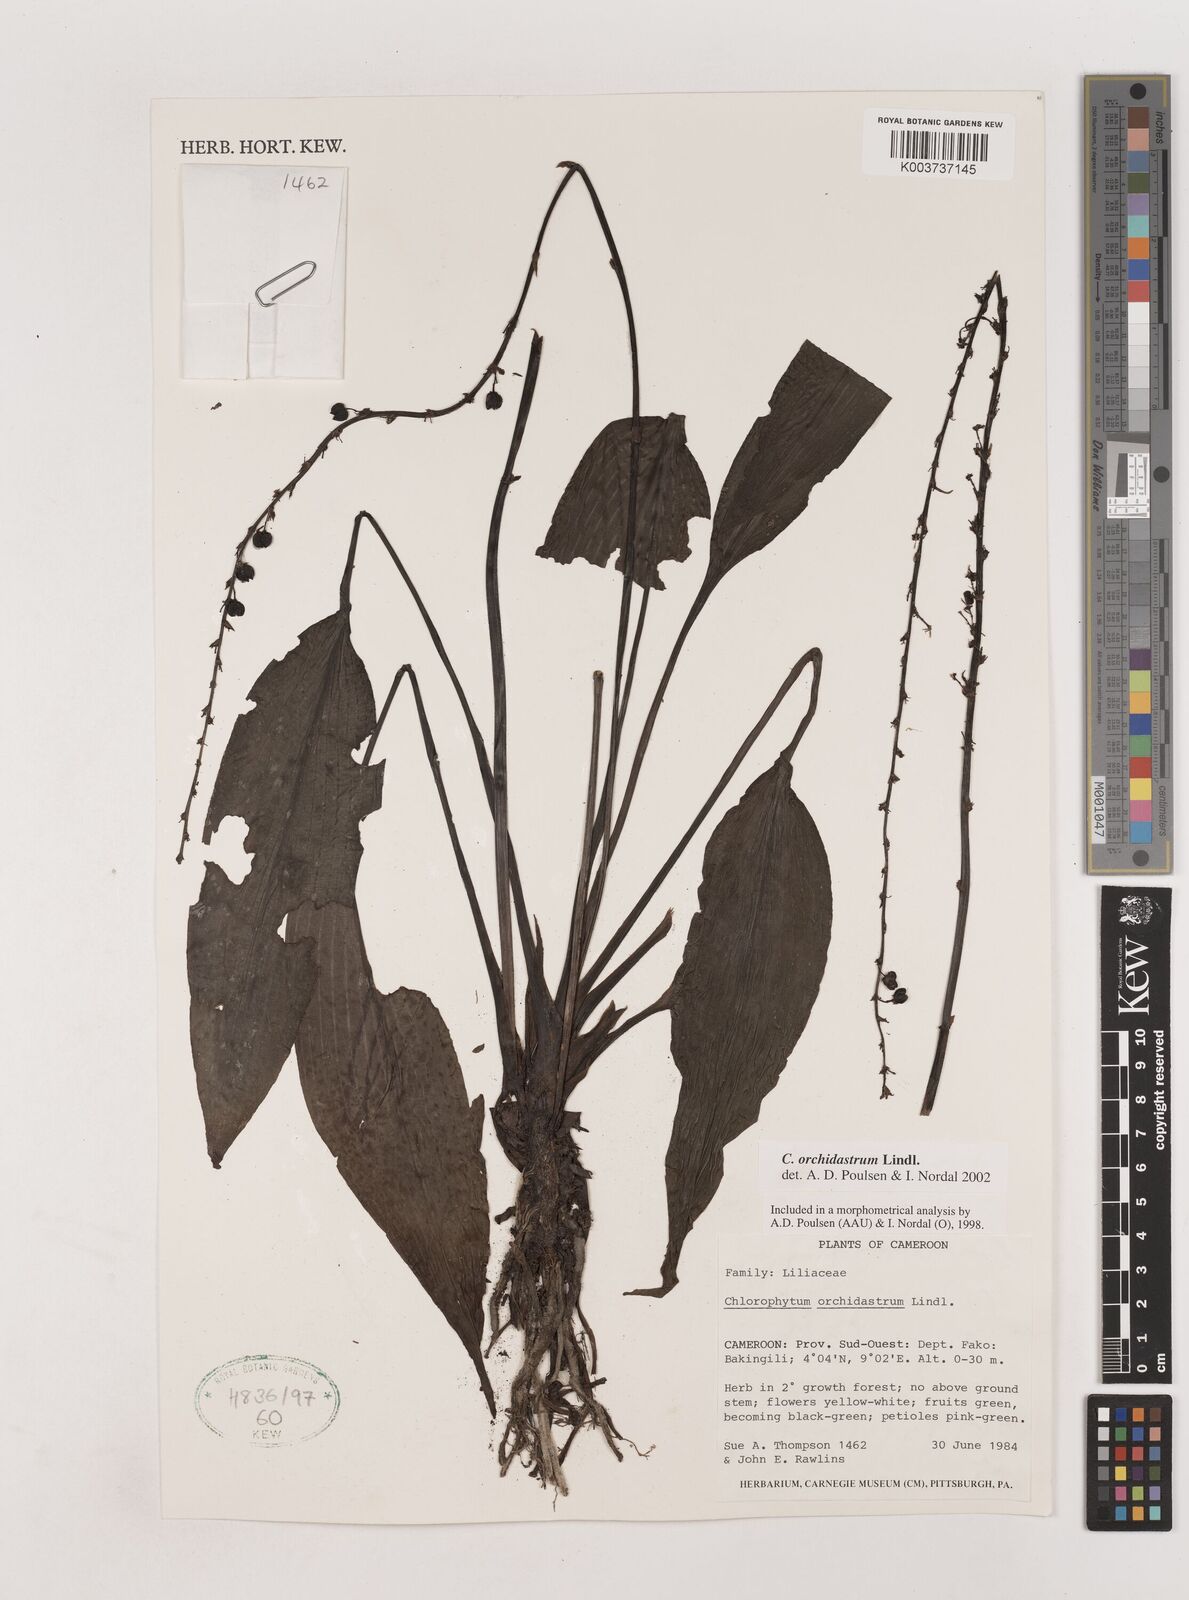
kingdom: Plantae
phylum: Tracheophyta
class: Liliopsida
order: Asparagales
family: Asparagaceae
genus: Chlorophytum
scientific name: Chlorophytum orchidastrum
